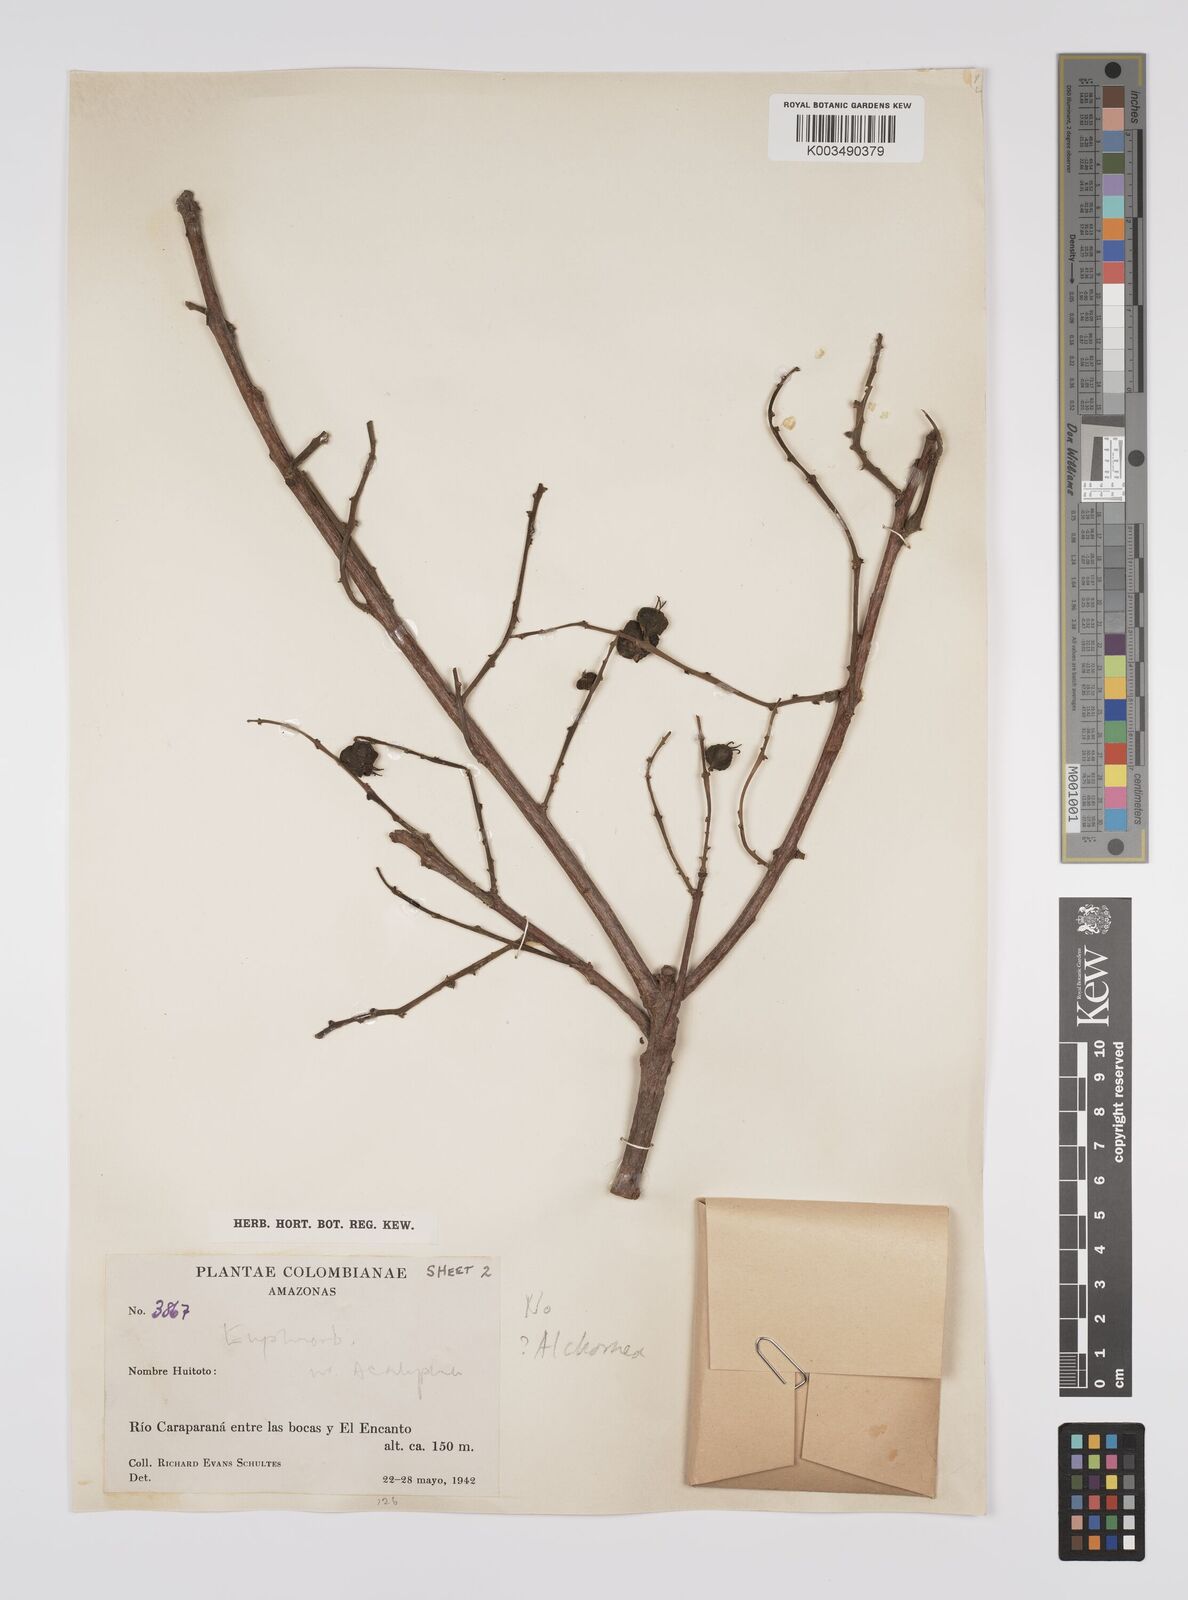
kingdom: Plantae
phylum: Tracheophyta
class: Magnoliopsida
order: Malpighiales
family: Euphorbiaceae
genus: Alchornea
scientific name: Alchornea
